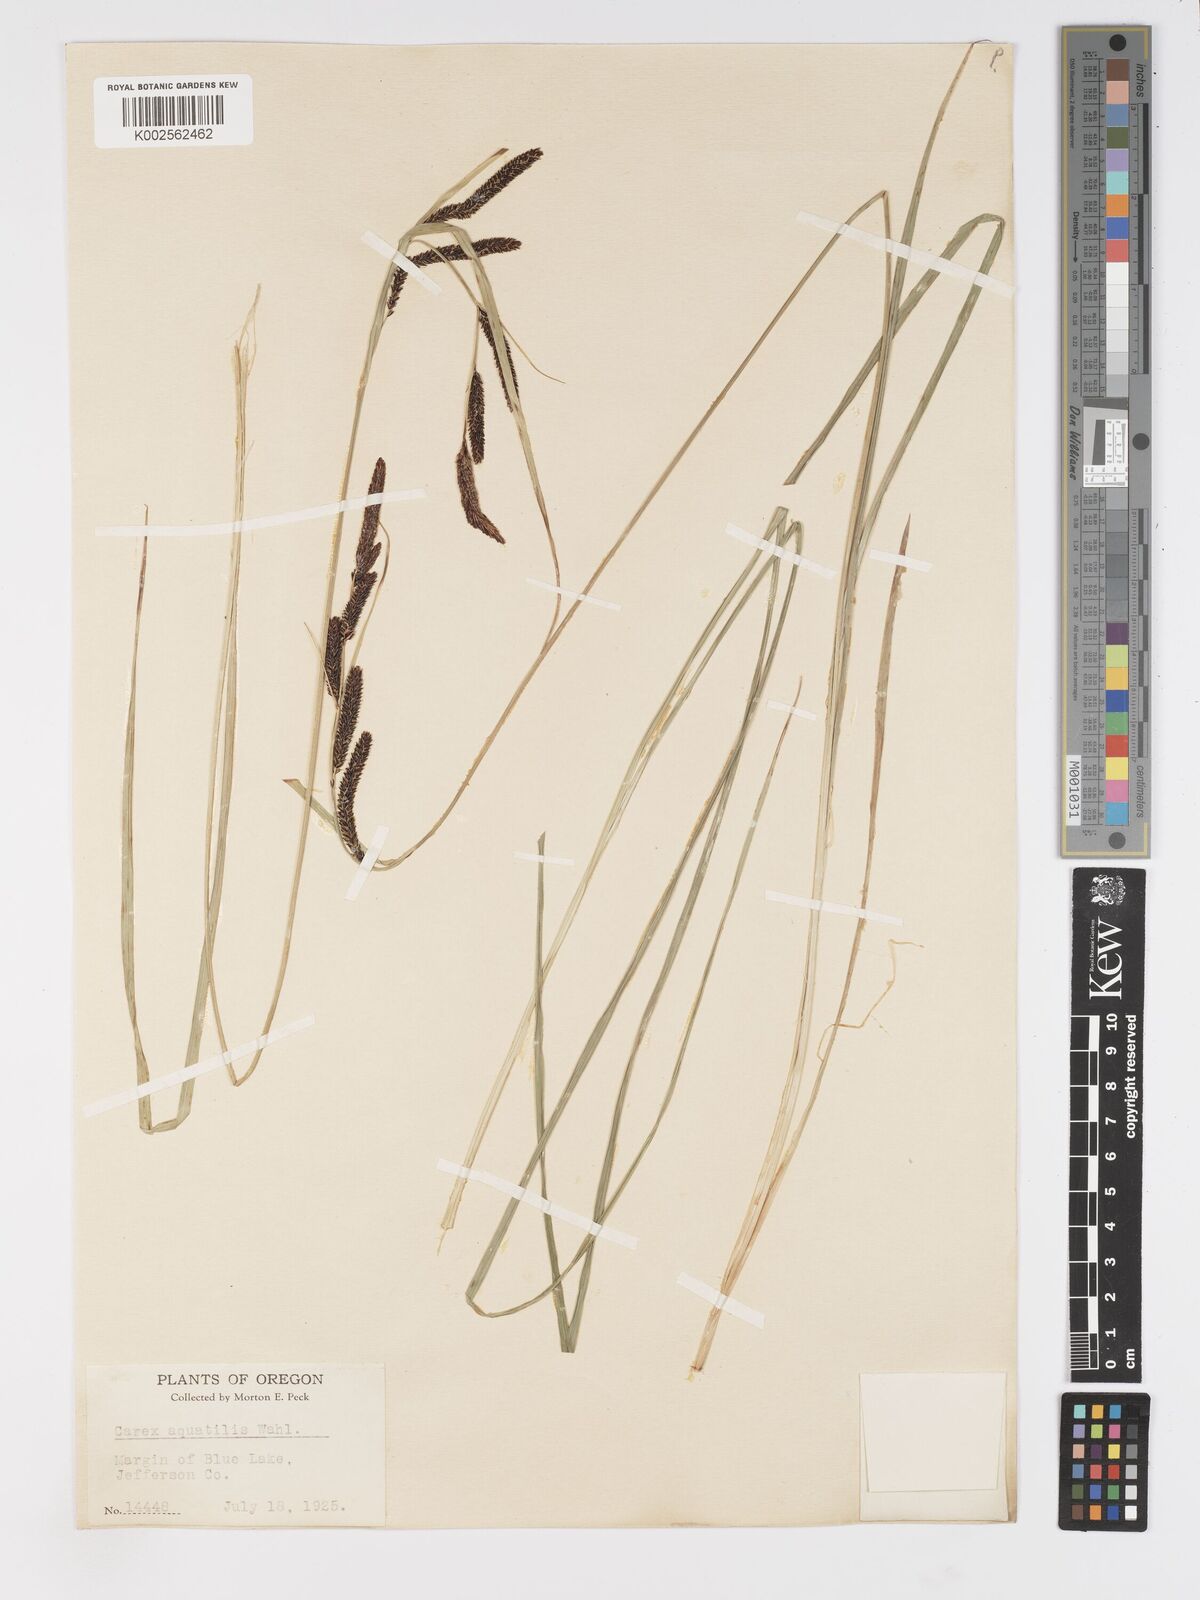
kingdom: Plantae
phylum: Tracheophyta
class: Liliopsida
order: Poales
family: Cyperaceae
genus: Carex
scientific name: Carex
